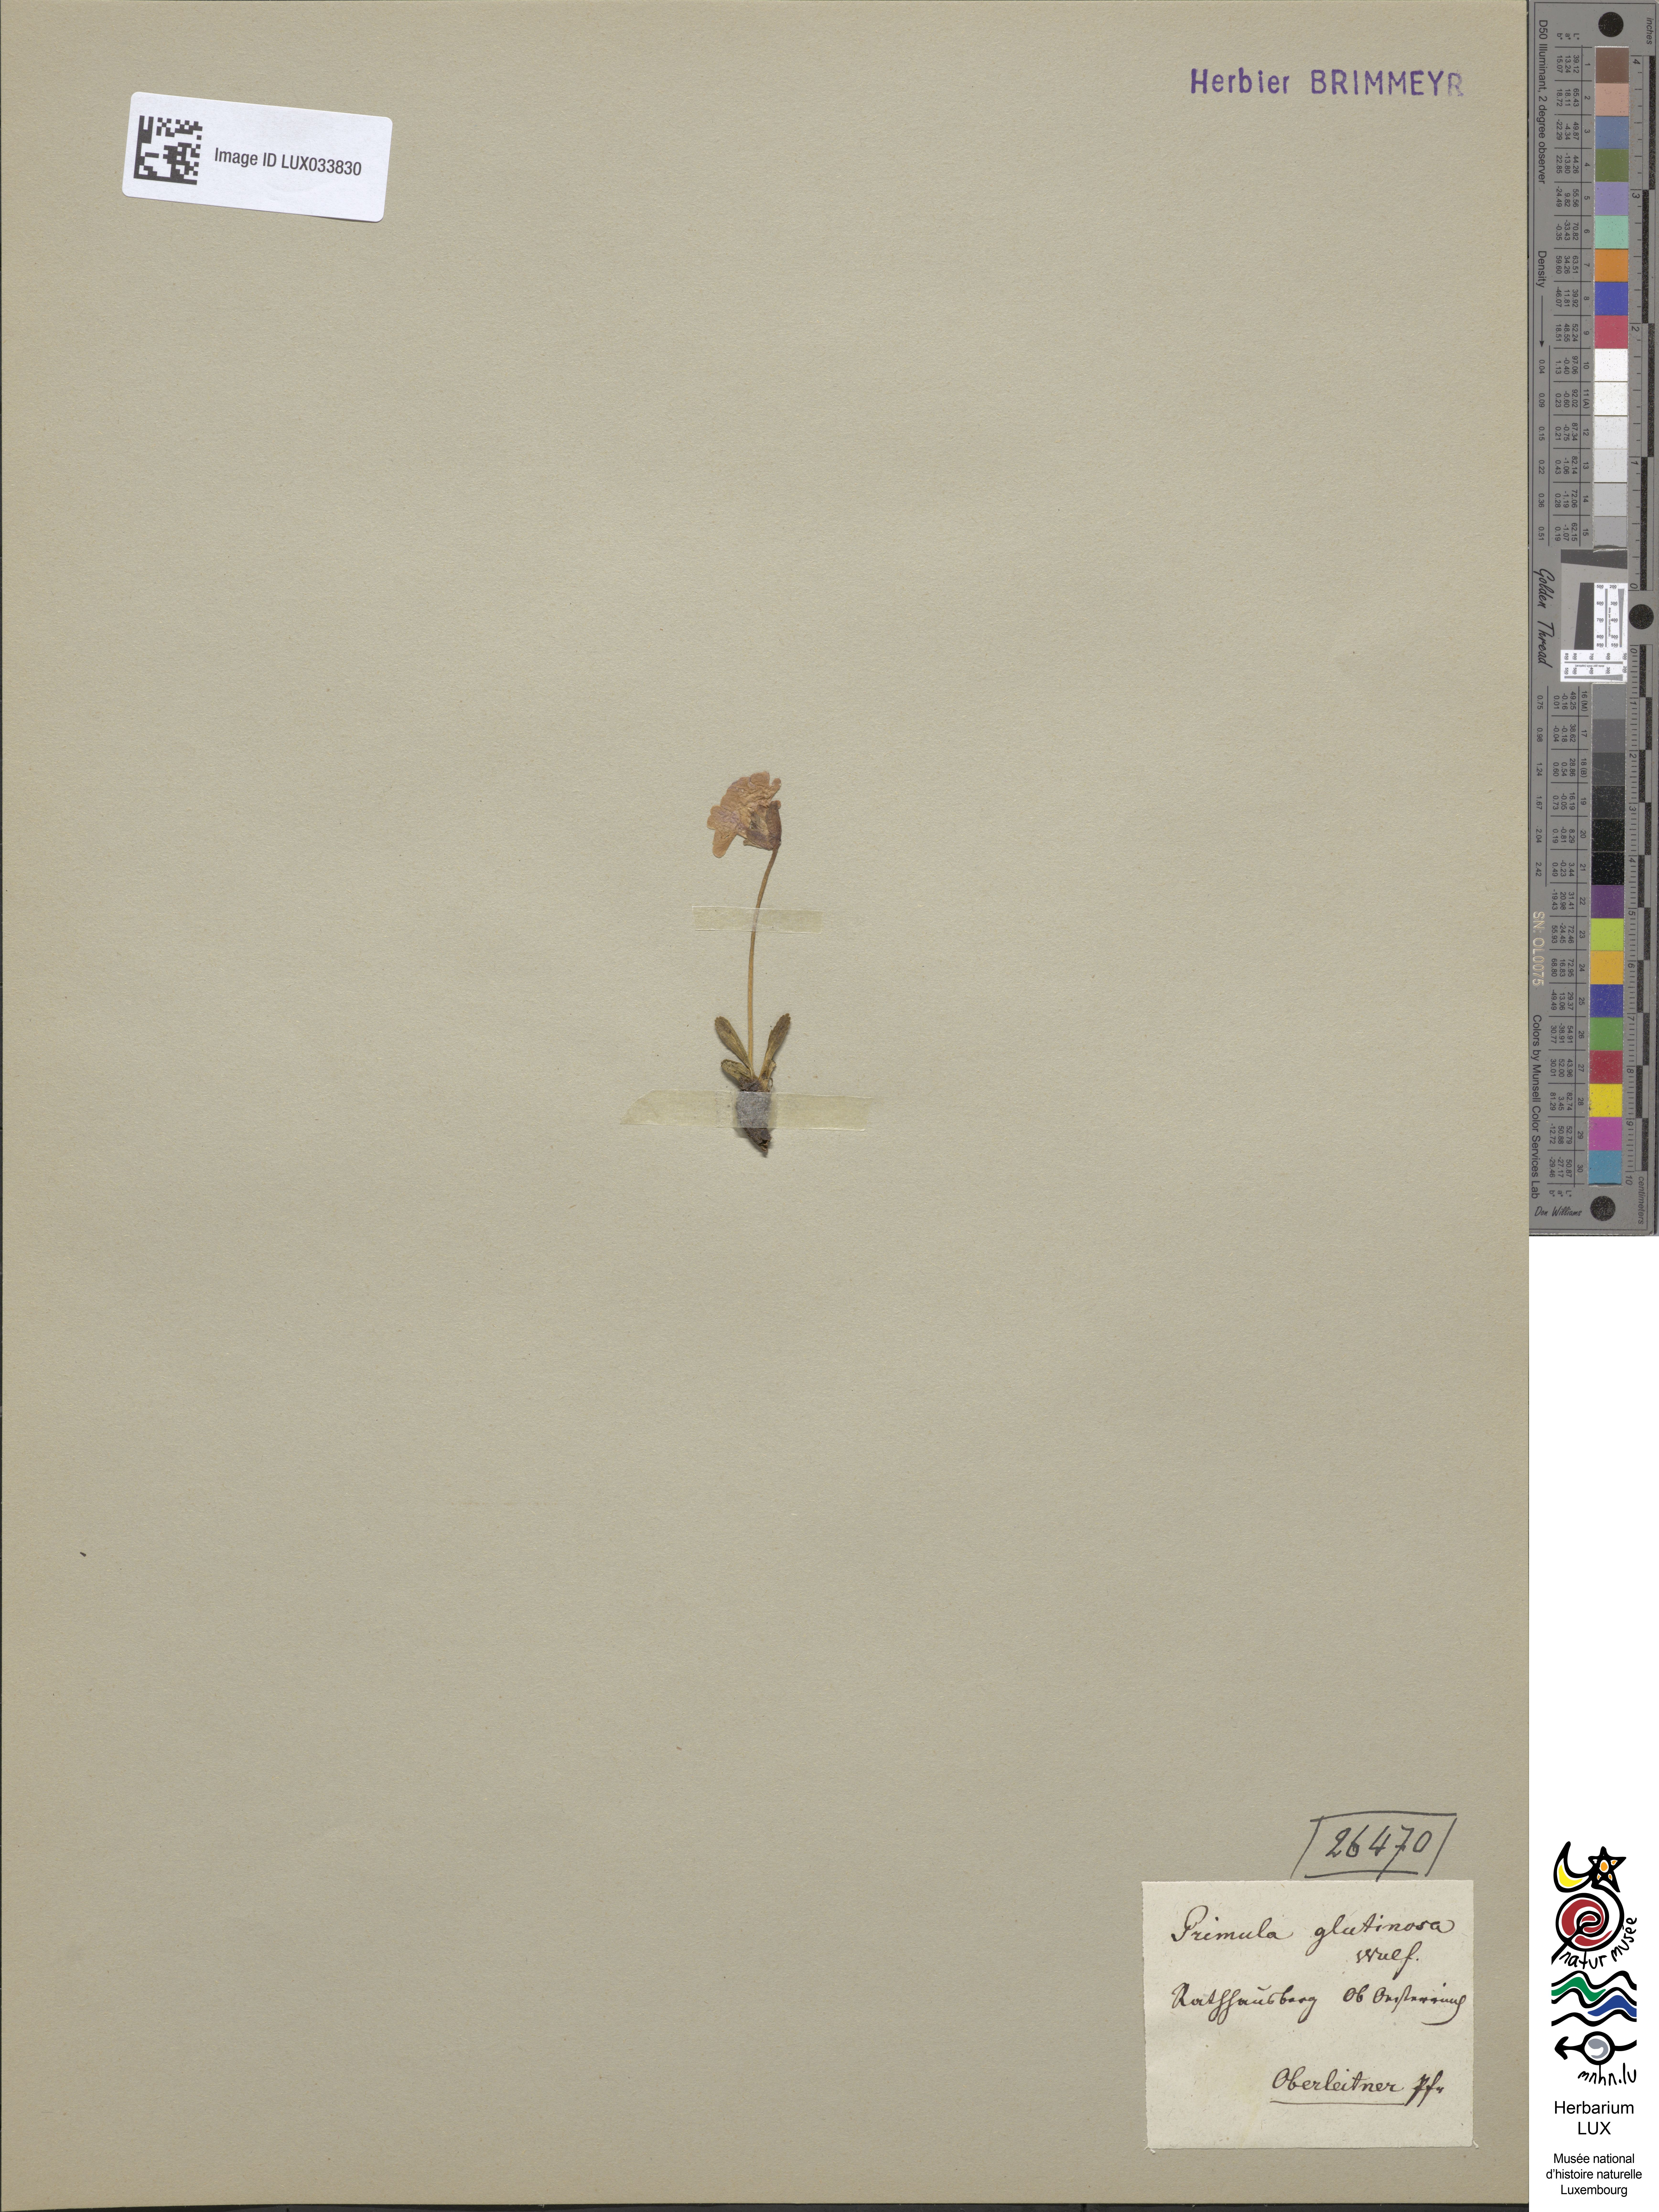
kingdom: Plantae
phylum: Tracheophyta
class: Magnoliopsida
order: Ericales
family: Primulaceae
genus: Primula
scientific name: Primula glutinosa
